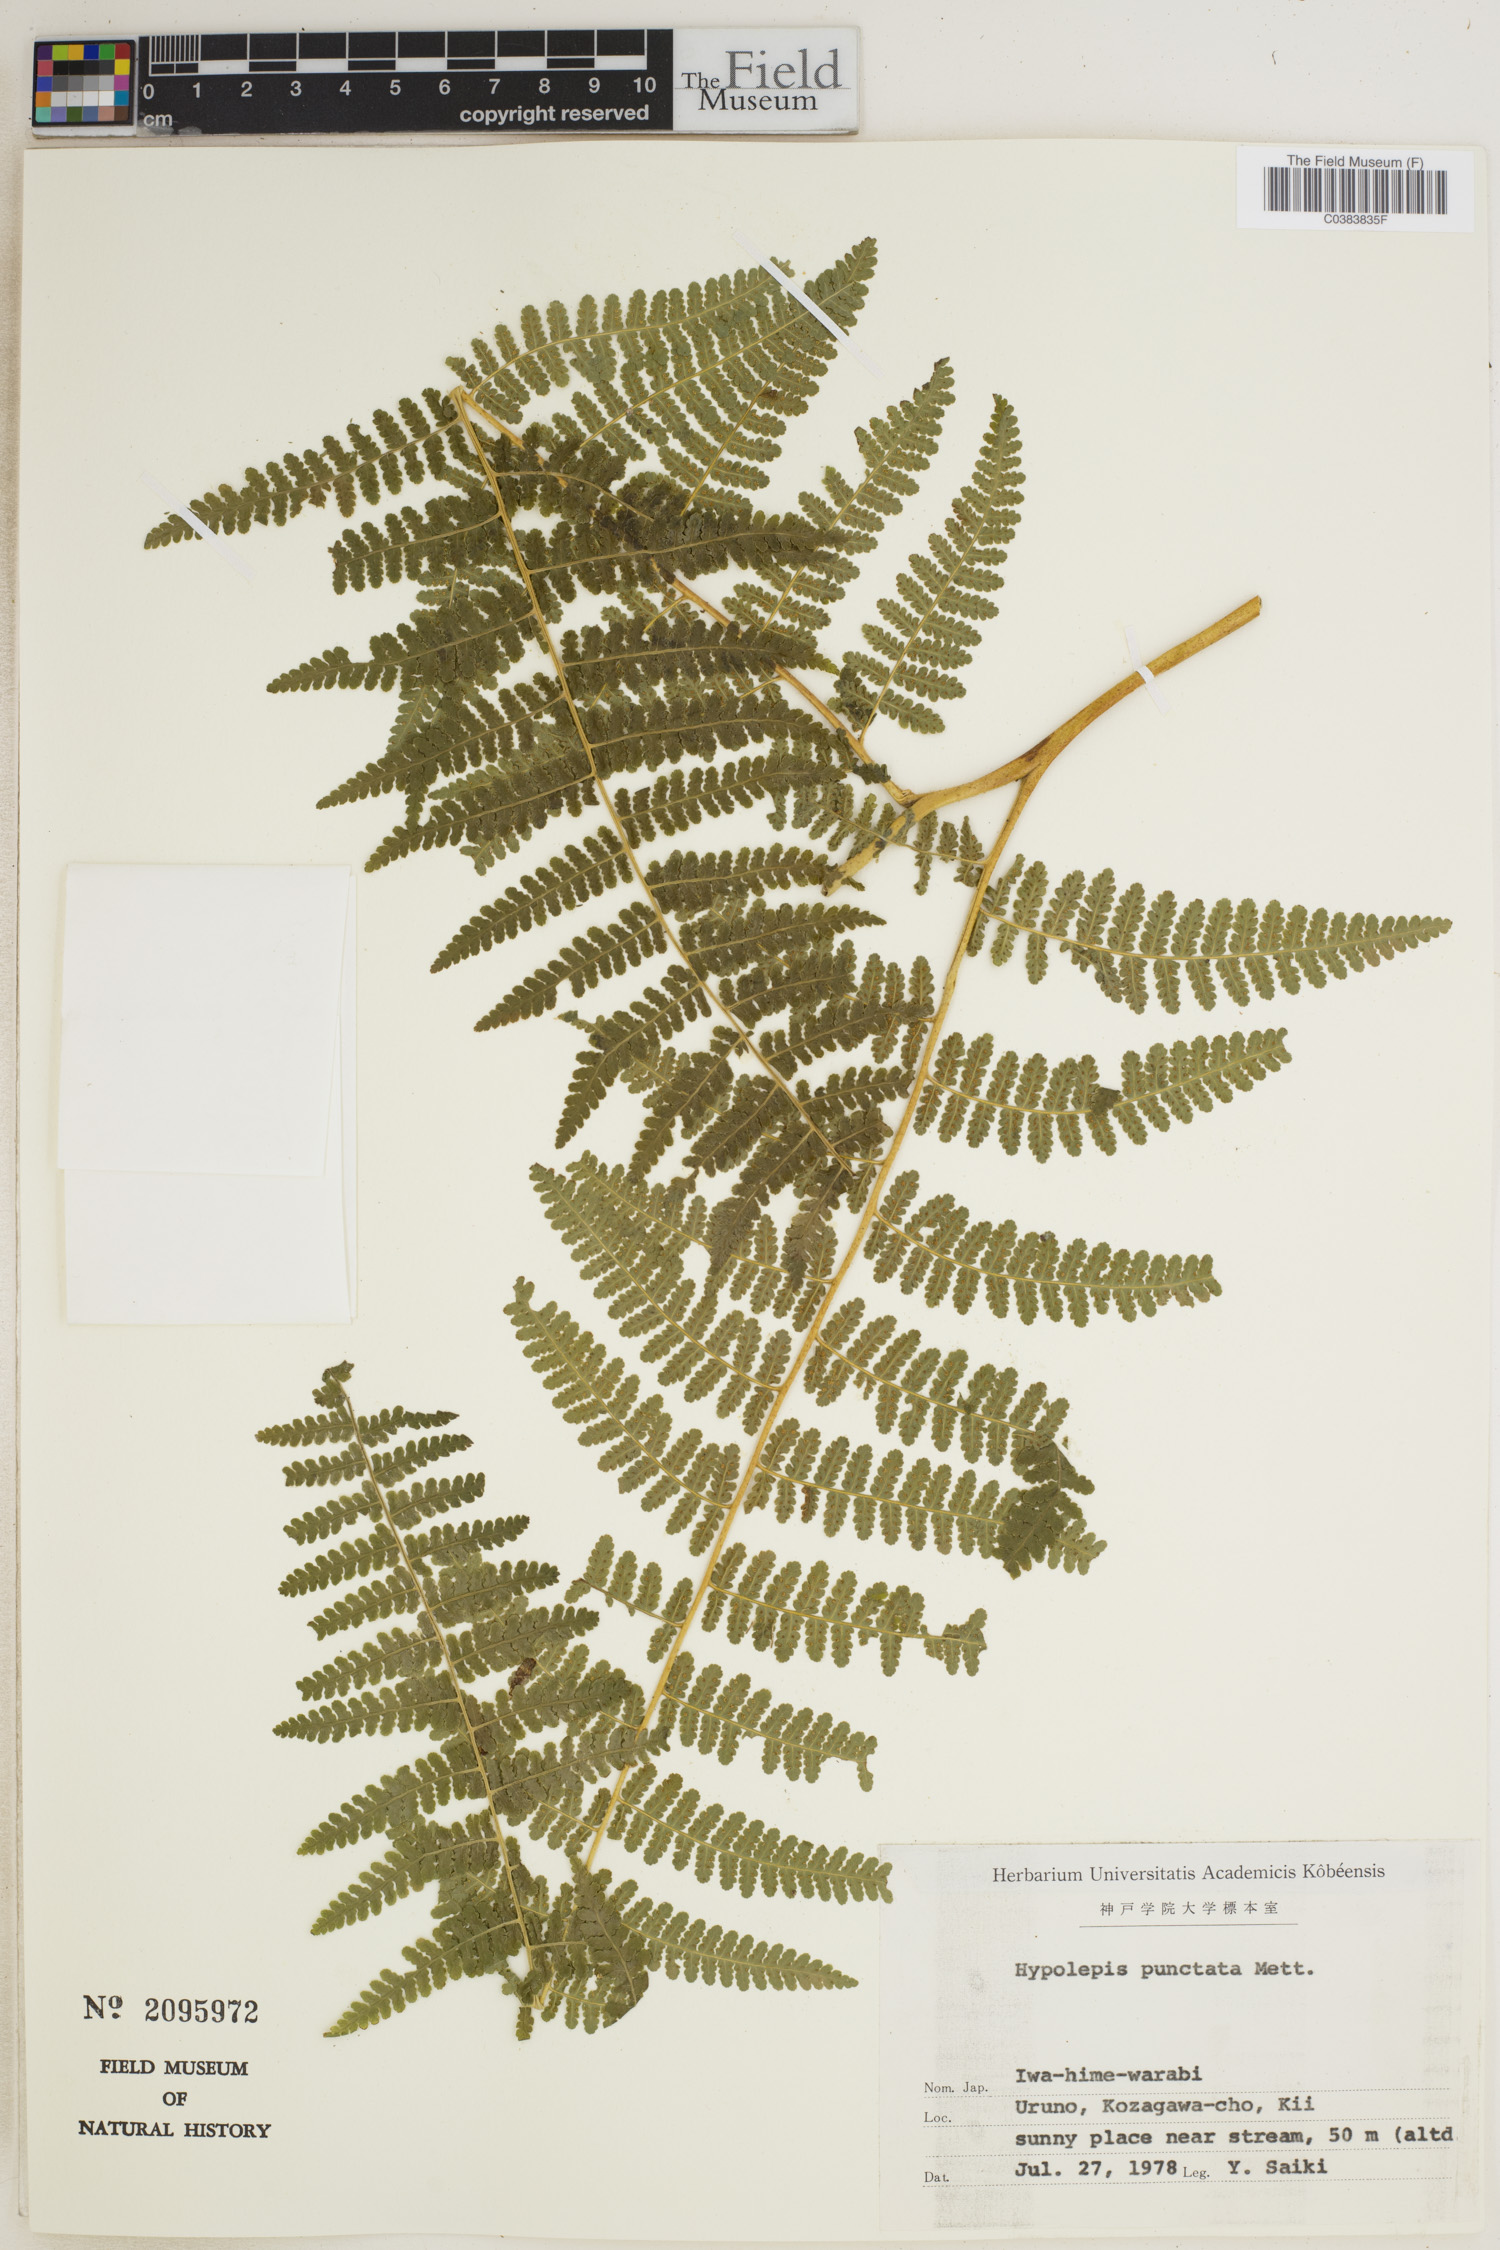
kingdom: Plantae
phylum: Tracheophyta
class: Polypodiopsida
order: Polypodiales
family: Dennstaedtiaceae
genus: Hypolepis
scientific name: Hypolepis punctata
